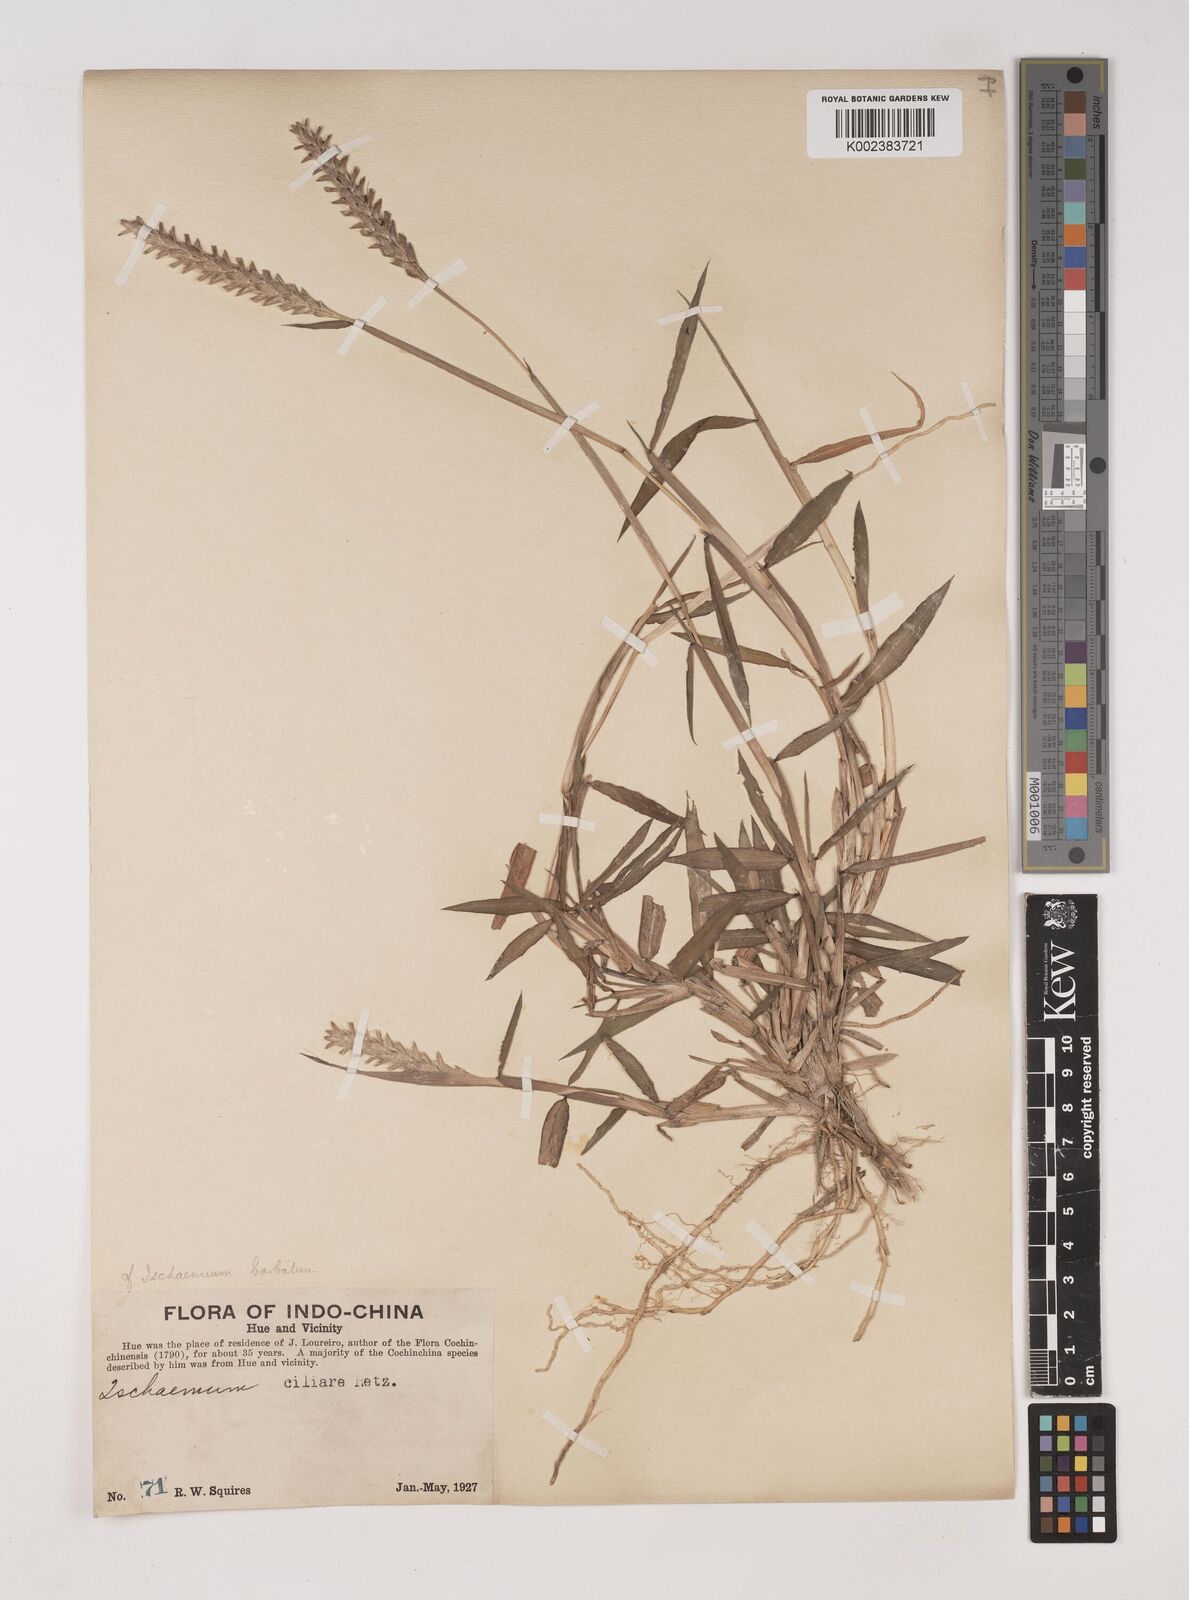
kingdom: Plantae
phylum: Tracheophyta
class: Liliopsida
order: Poales
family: Poaceae
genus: Ischaemum
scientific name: Ischaemum
